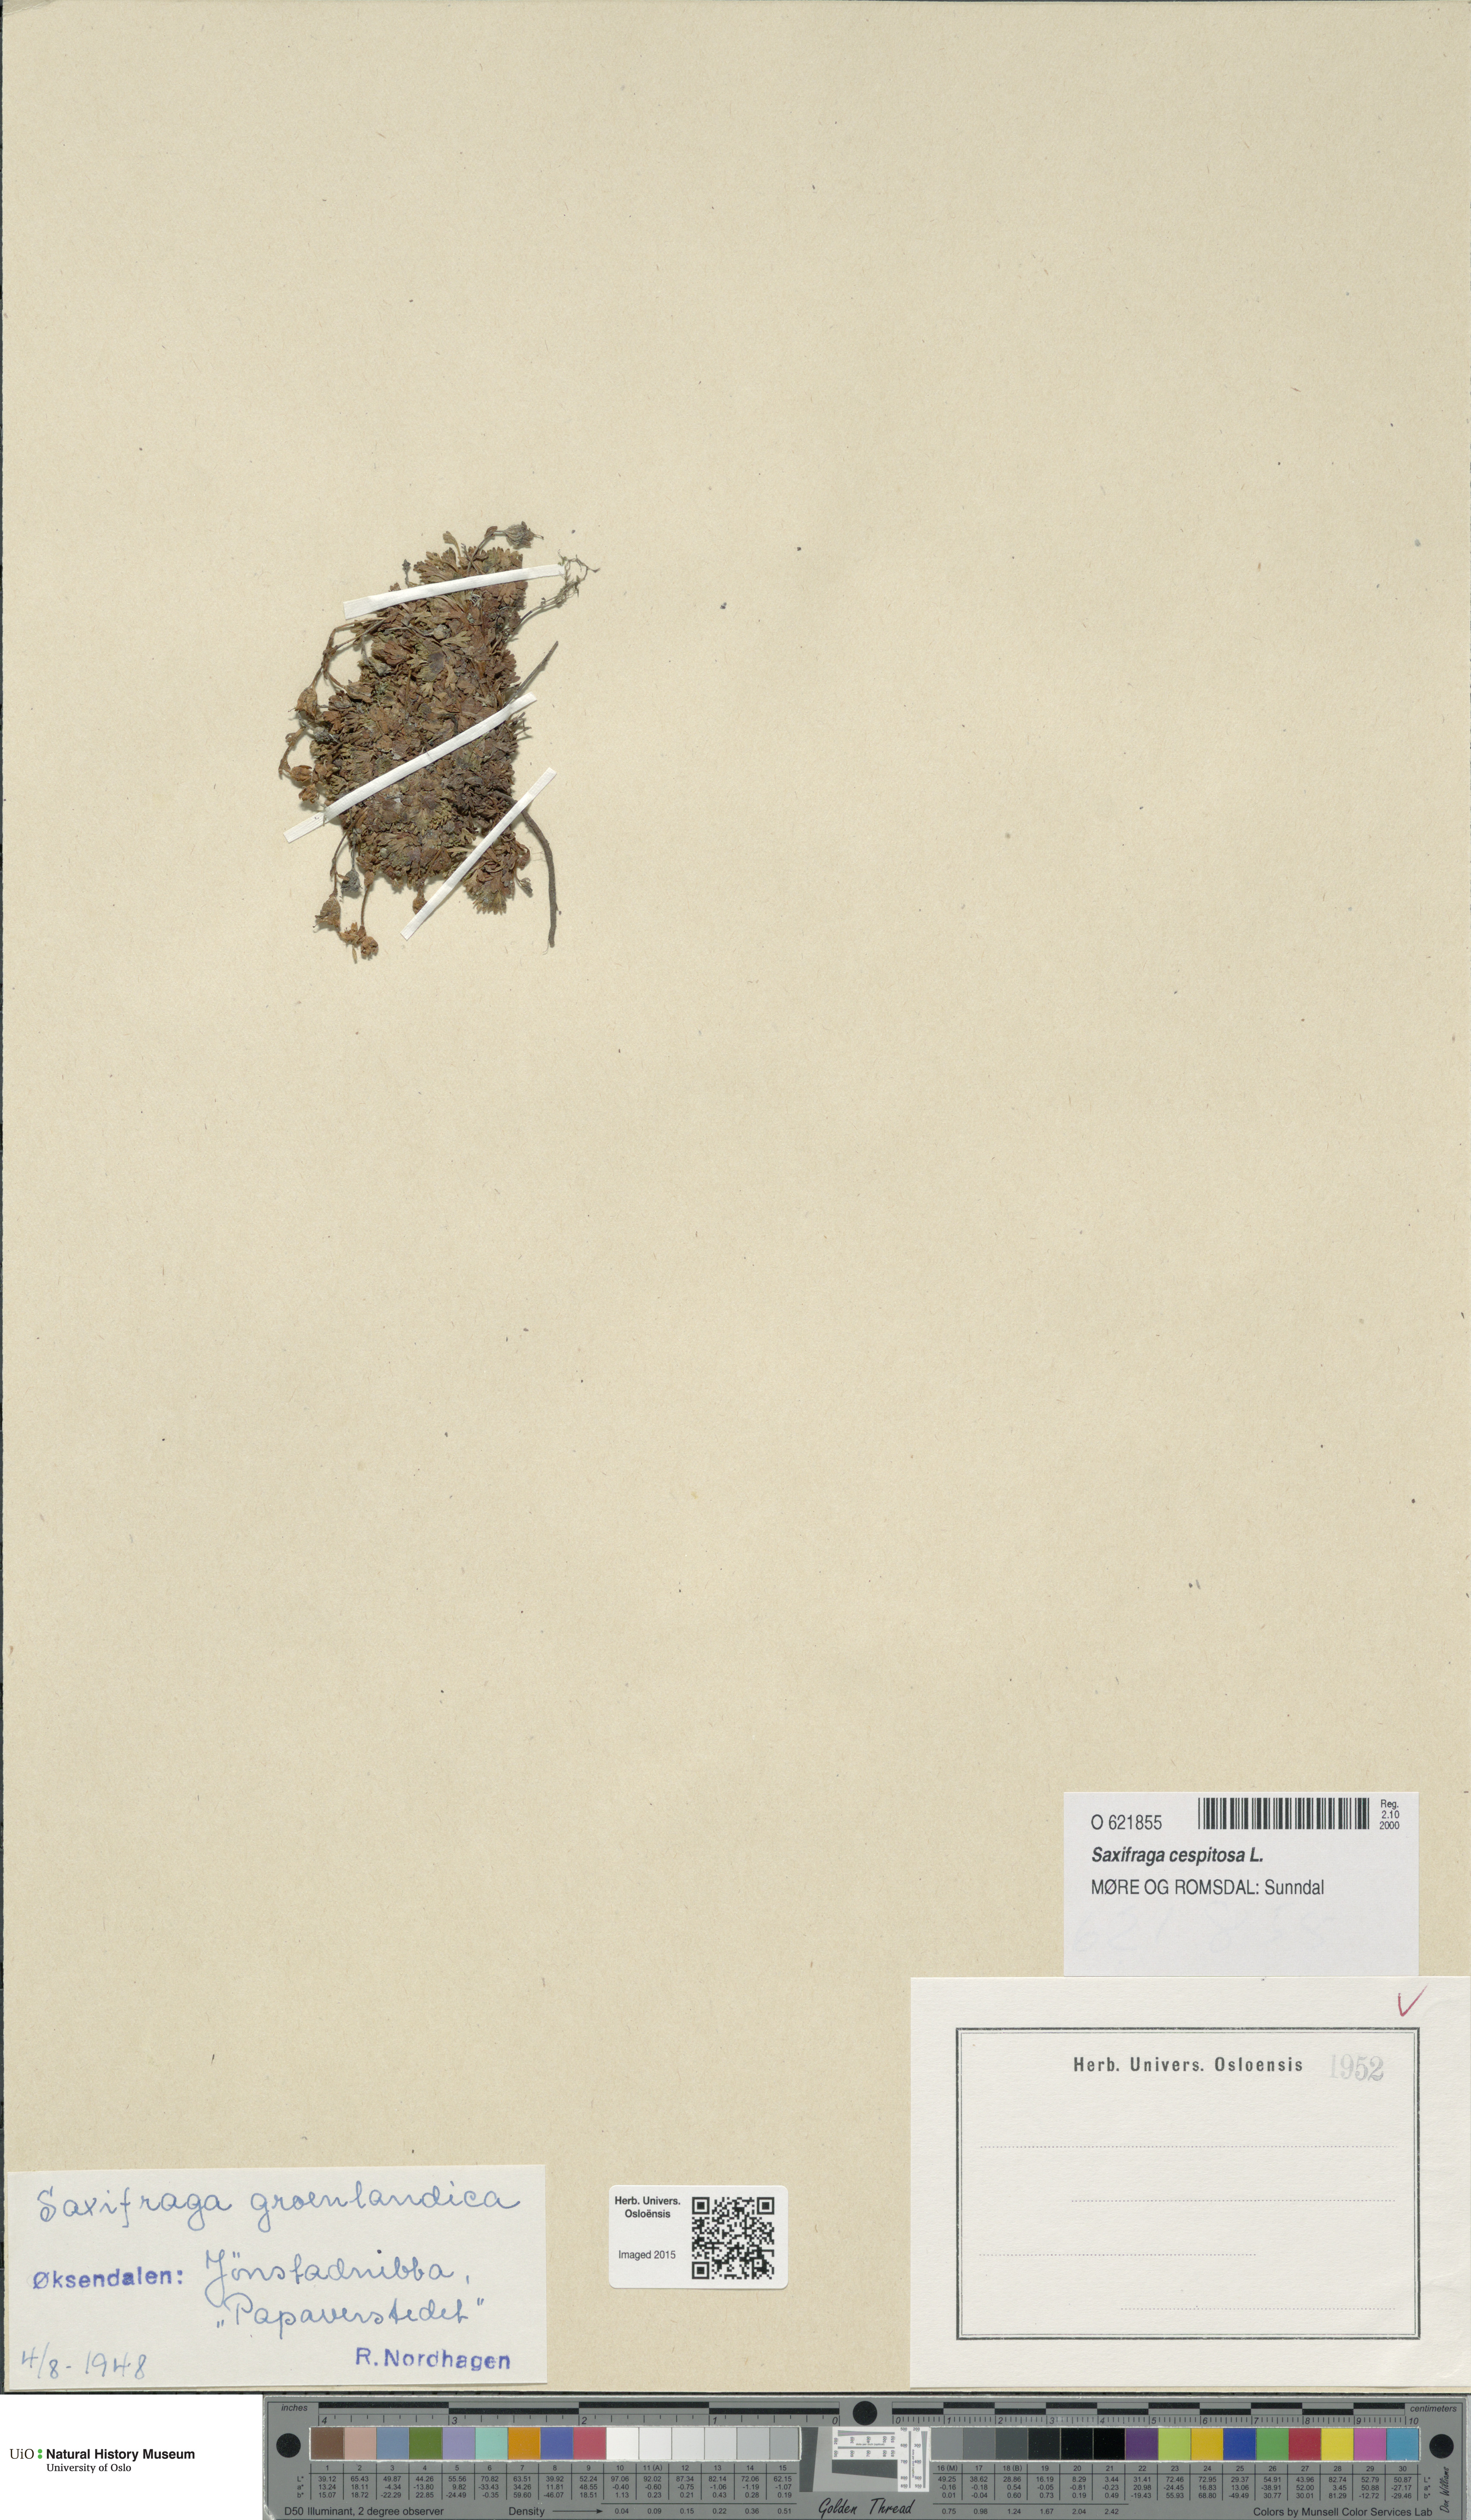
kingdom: Plantae
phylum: Tracheophyta
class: Magnoliopsida
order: Saxifragales
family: Saxifragaceae
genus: Saxifraga
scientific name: Saxifraga cespitosa
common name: Tufted saxifrage
